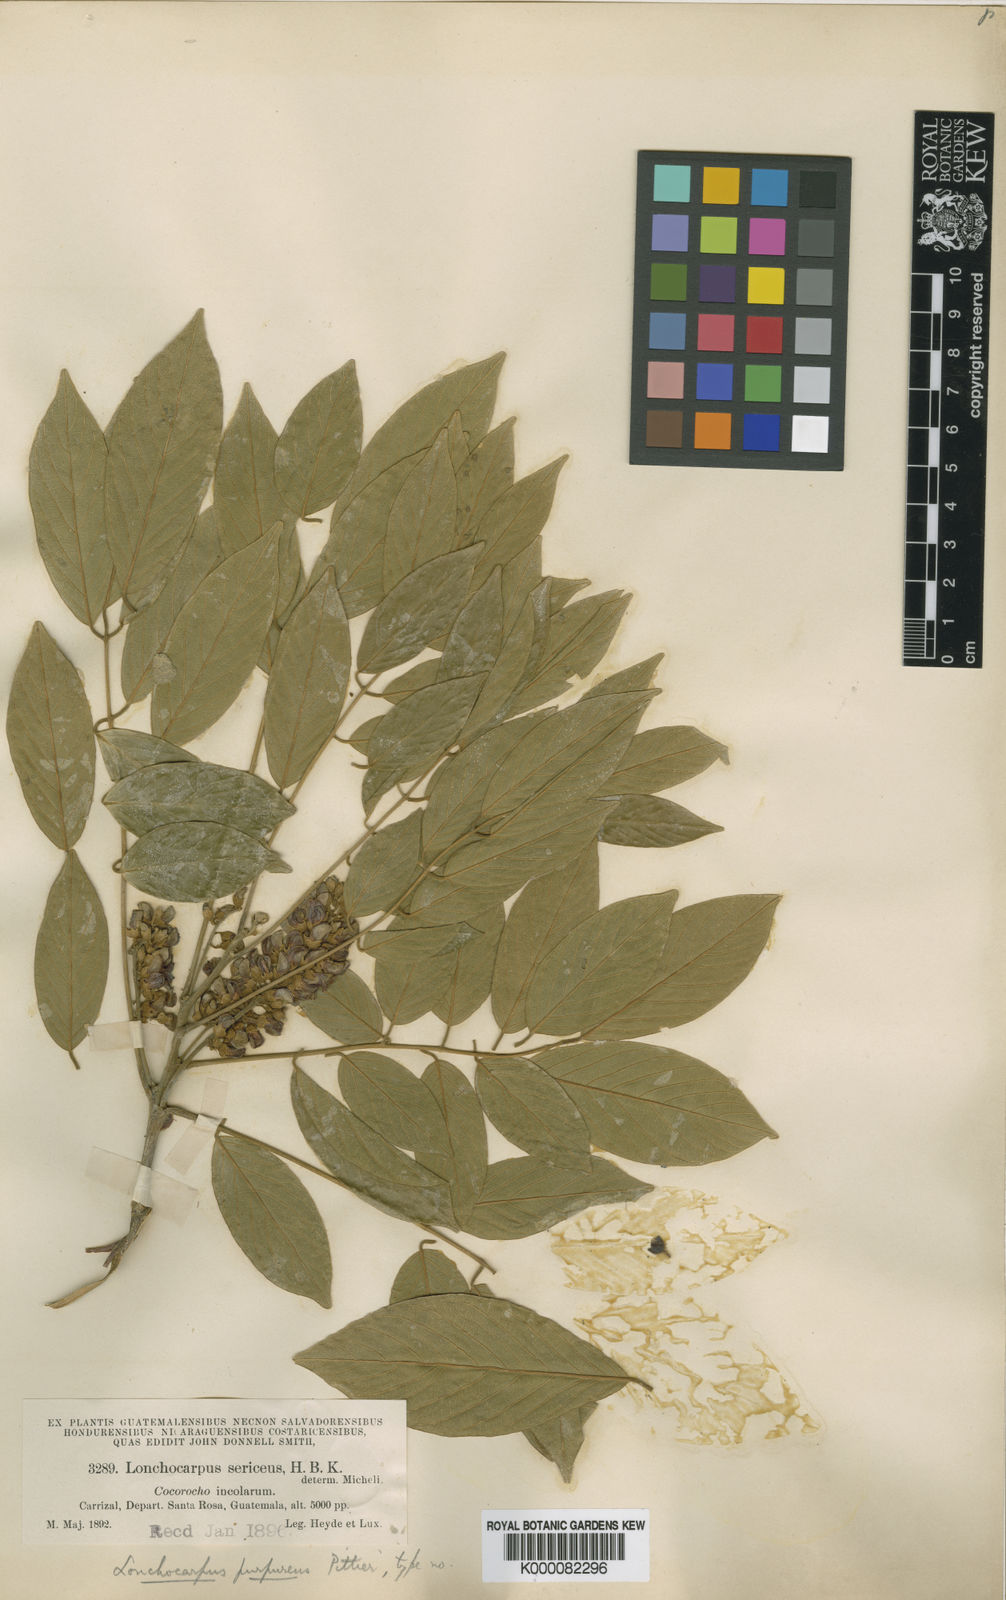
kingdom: Plantae
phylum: Tracheophyta
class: Magnoliopsida
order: Fabales
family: Fabaceae
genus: Lonchocarpus
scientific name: Lonchocarpus purpureus
